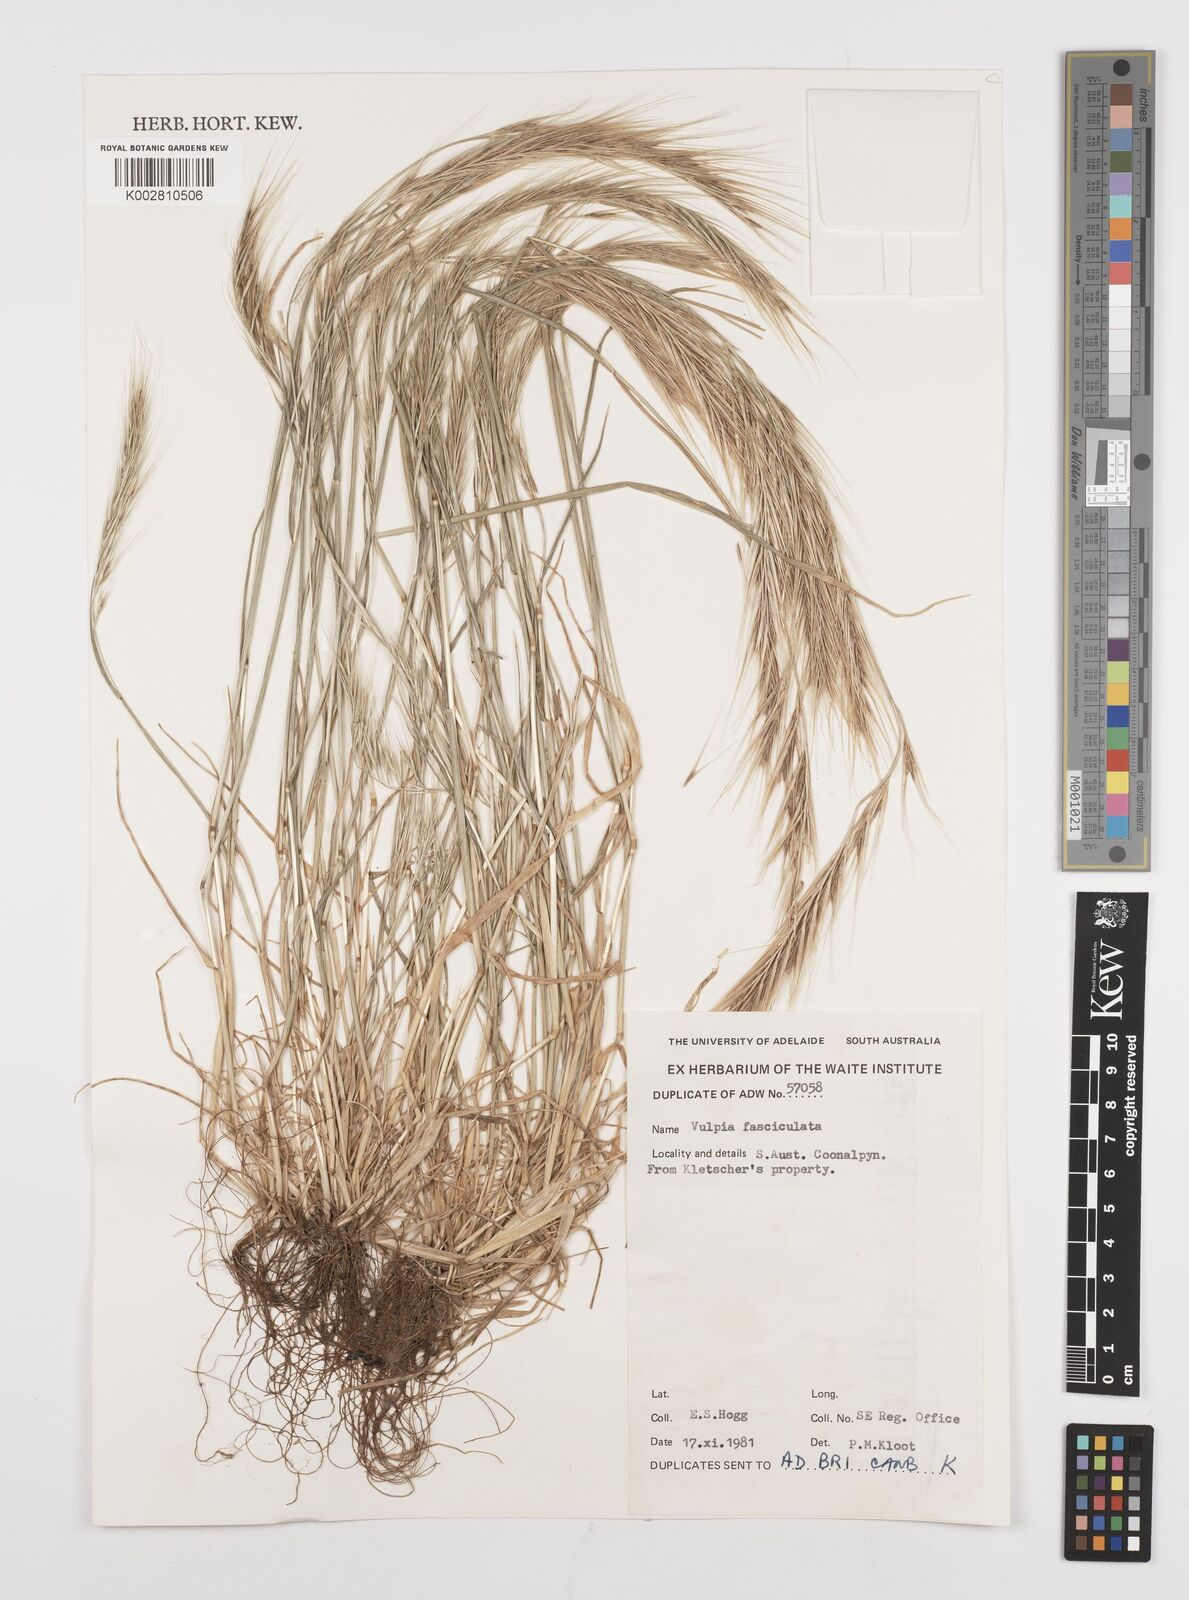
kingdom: Plantae
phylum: Tracheophyta
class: Liliopsida
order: Poales
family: Poaceae
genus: Festuca
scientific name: Festuca fasciculata
